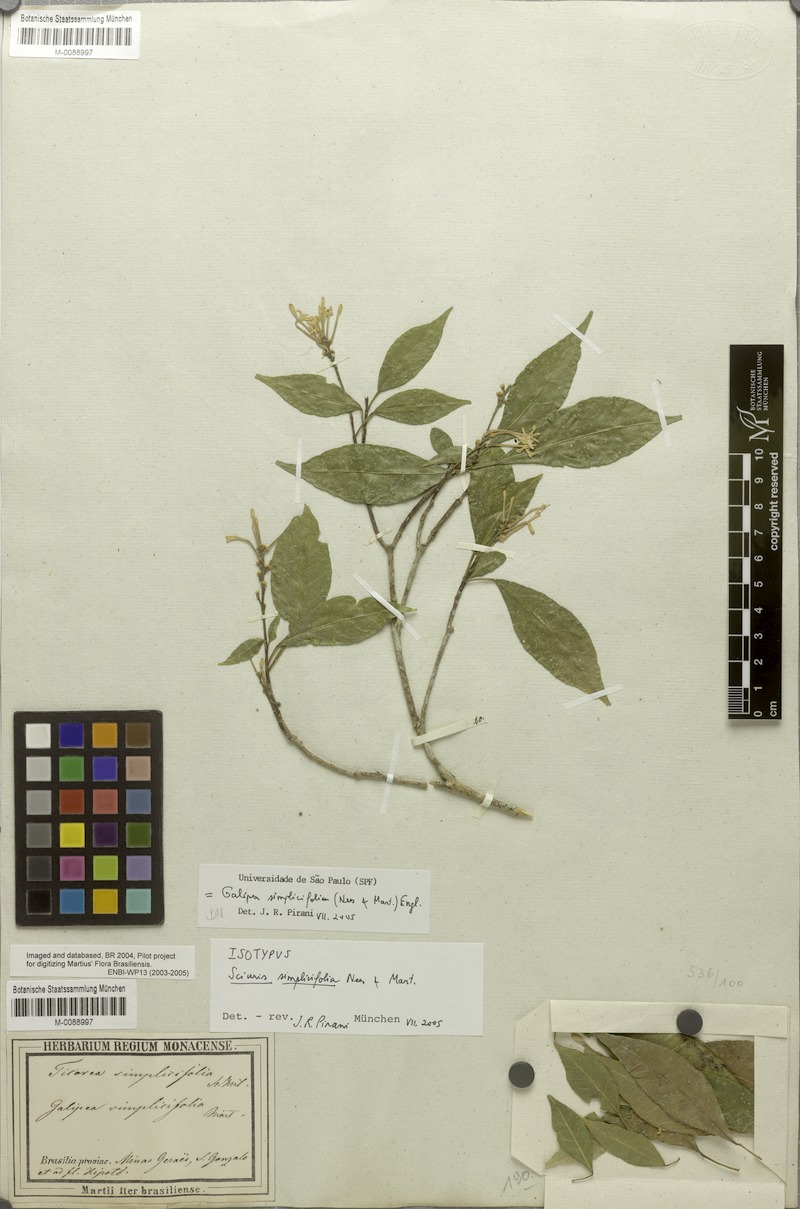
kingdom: Plantae
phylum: Tracheophyta
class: Magnoliopsida
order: Sapindales
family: Rutaceae
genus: Galipea
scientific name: Galipea simplicifolia
